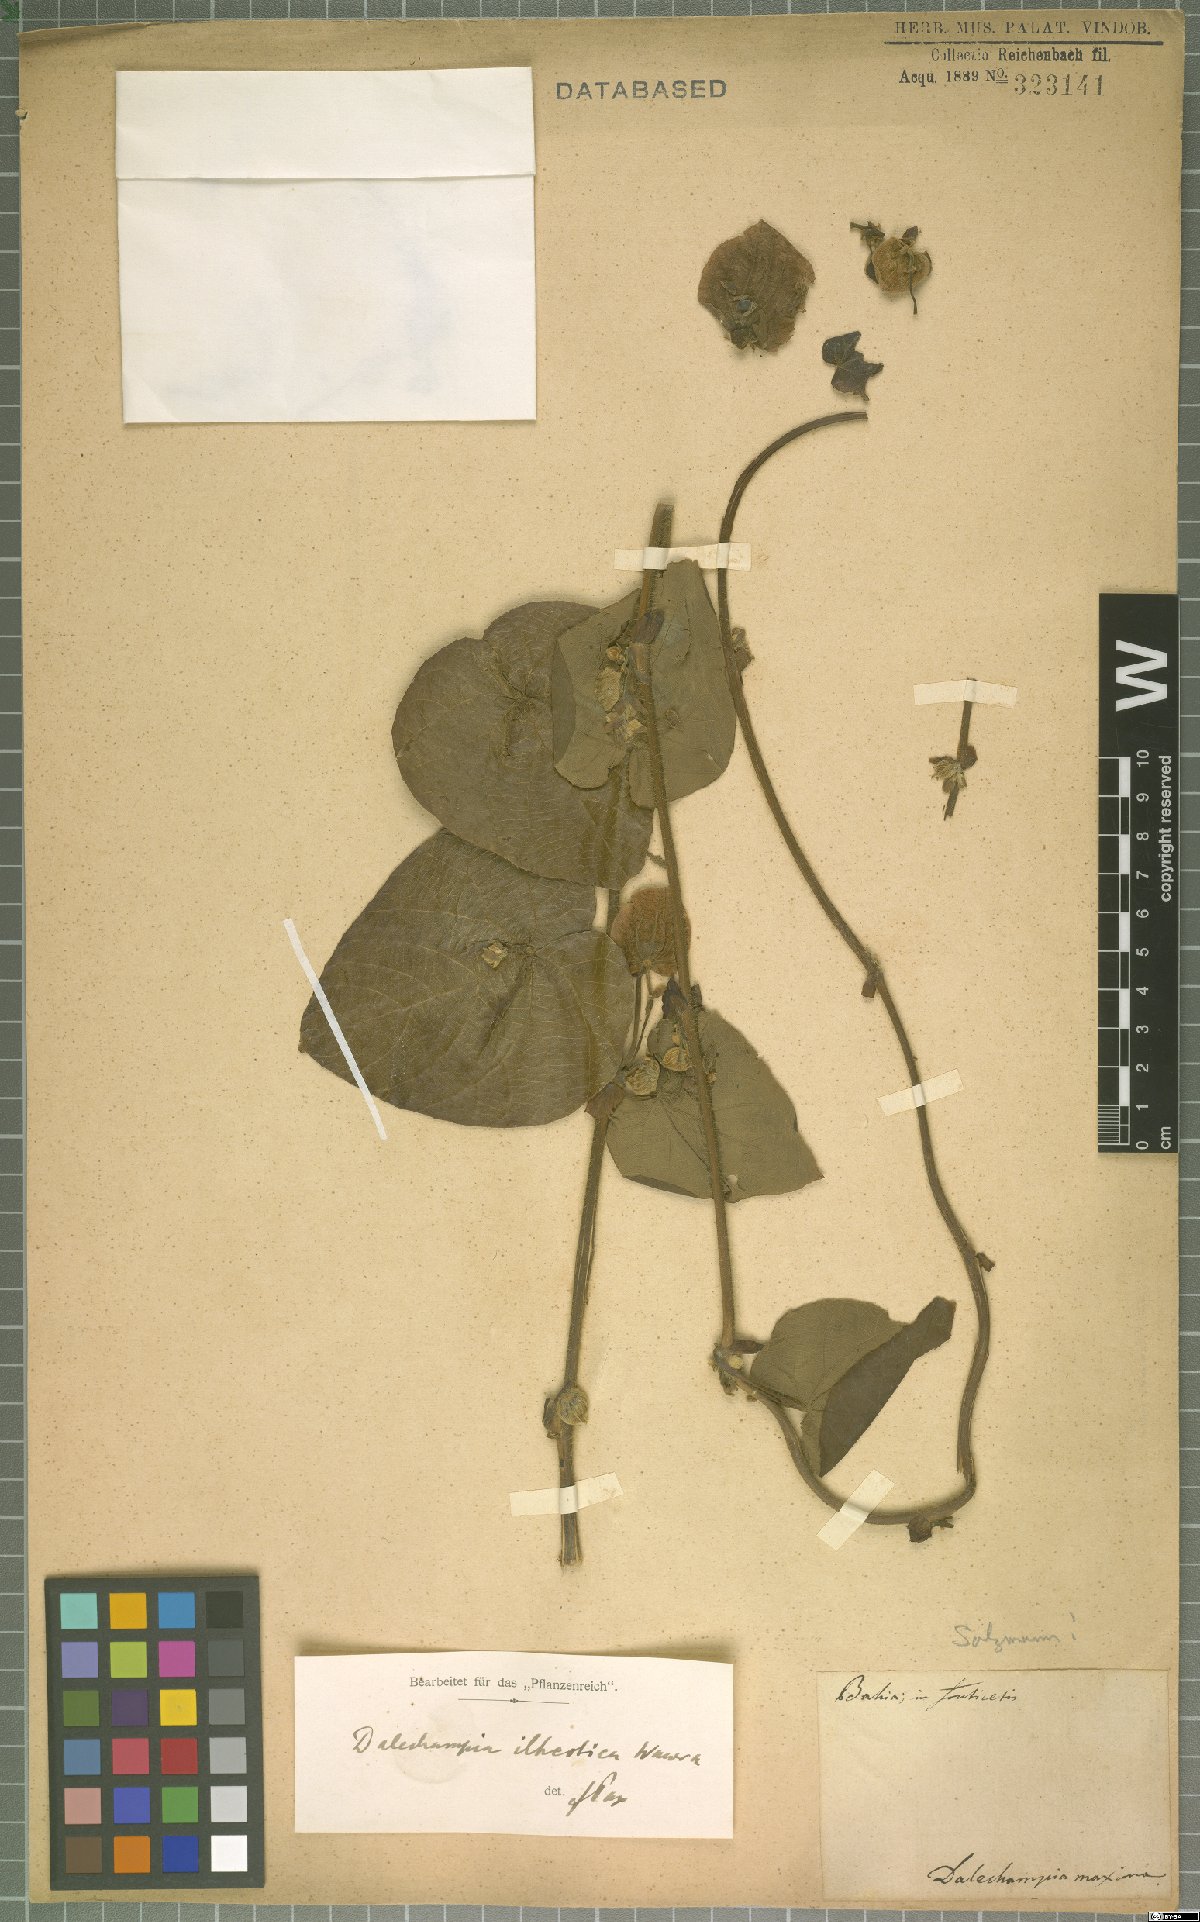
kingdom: Plantae
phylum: Tracheophyta
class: Magnoliopsida
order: Malpighiales
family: Euphorbiaceae
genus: Dalechampia
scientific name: Dalechampia ilheotica
